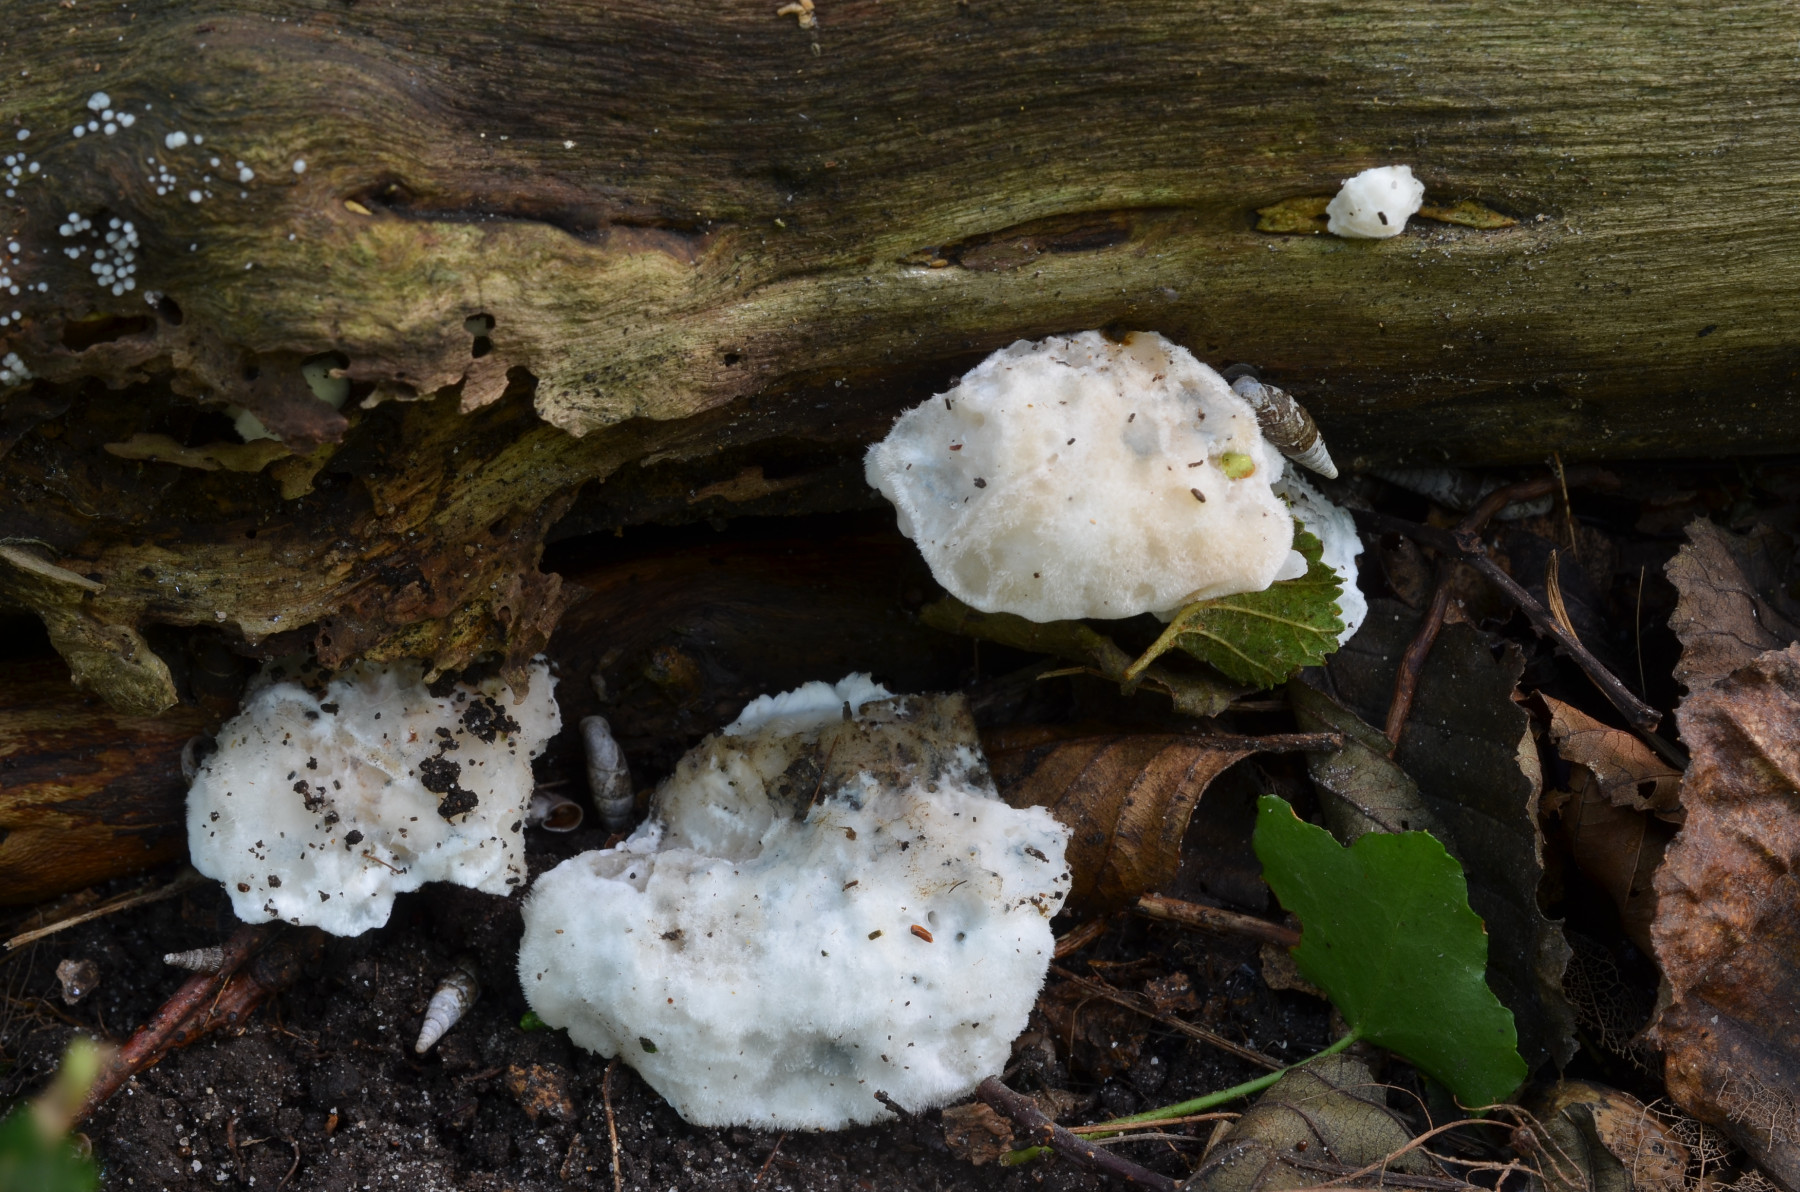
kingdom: Fungi
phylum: Basidiomycota
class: Agaricomycetes
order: Polyporales
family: Polyporaceae
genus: Cyanosporus
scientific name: Cyanosporus alni
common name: blegblå kødporesvamp
